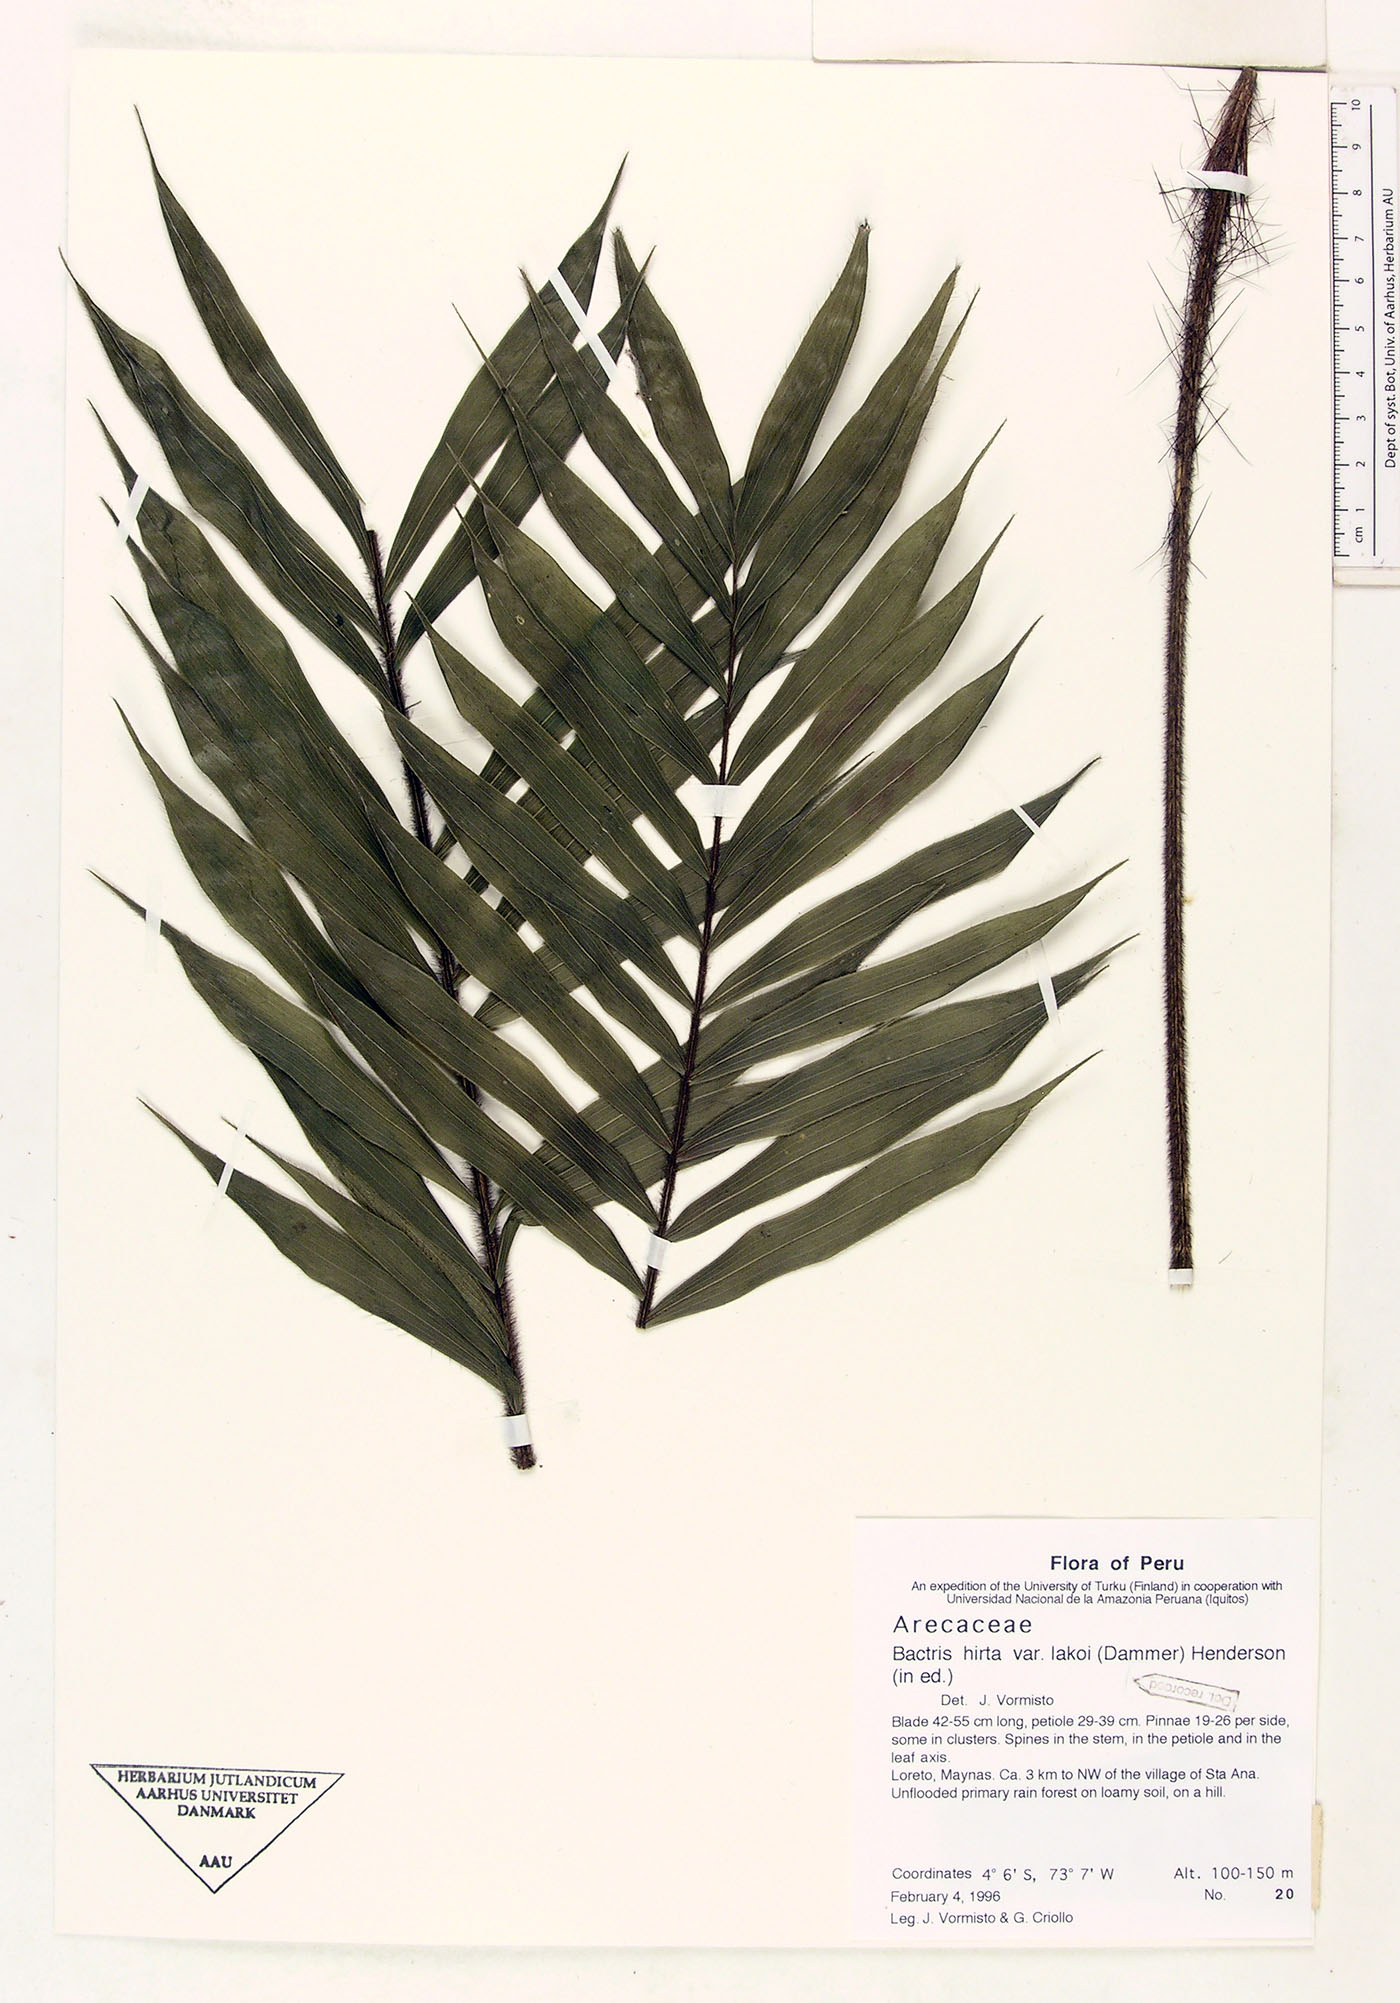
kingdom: Plantae
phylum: Tracheophyta
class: Liliopsida
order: Arecales
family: Arecaceae
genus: Bactris
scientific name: Bactris hirta
